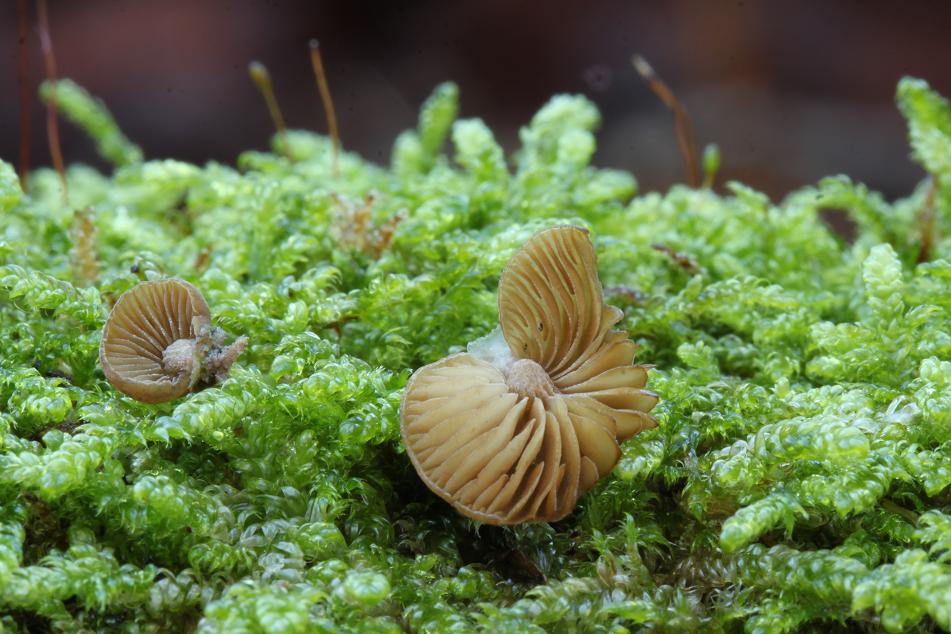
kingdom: Fungi
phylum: Basidiomycota
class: Agaricomycetes
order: Agaricales
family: Crepidotaceae
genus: Simocybe
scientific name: Simocybe haustellaris
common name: skæv skyggehat
